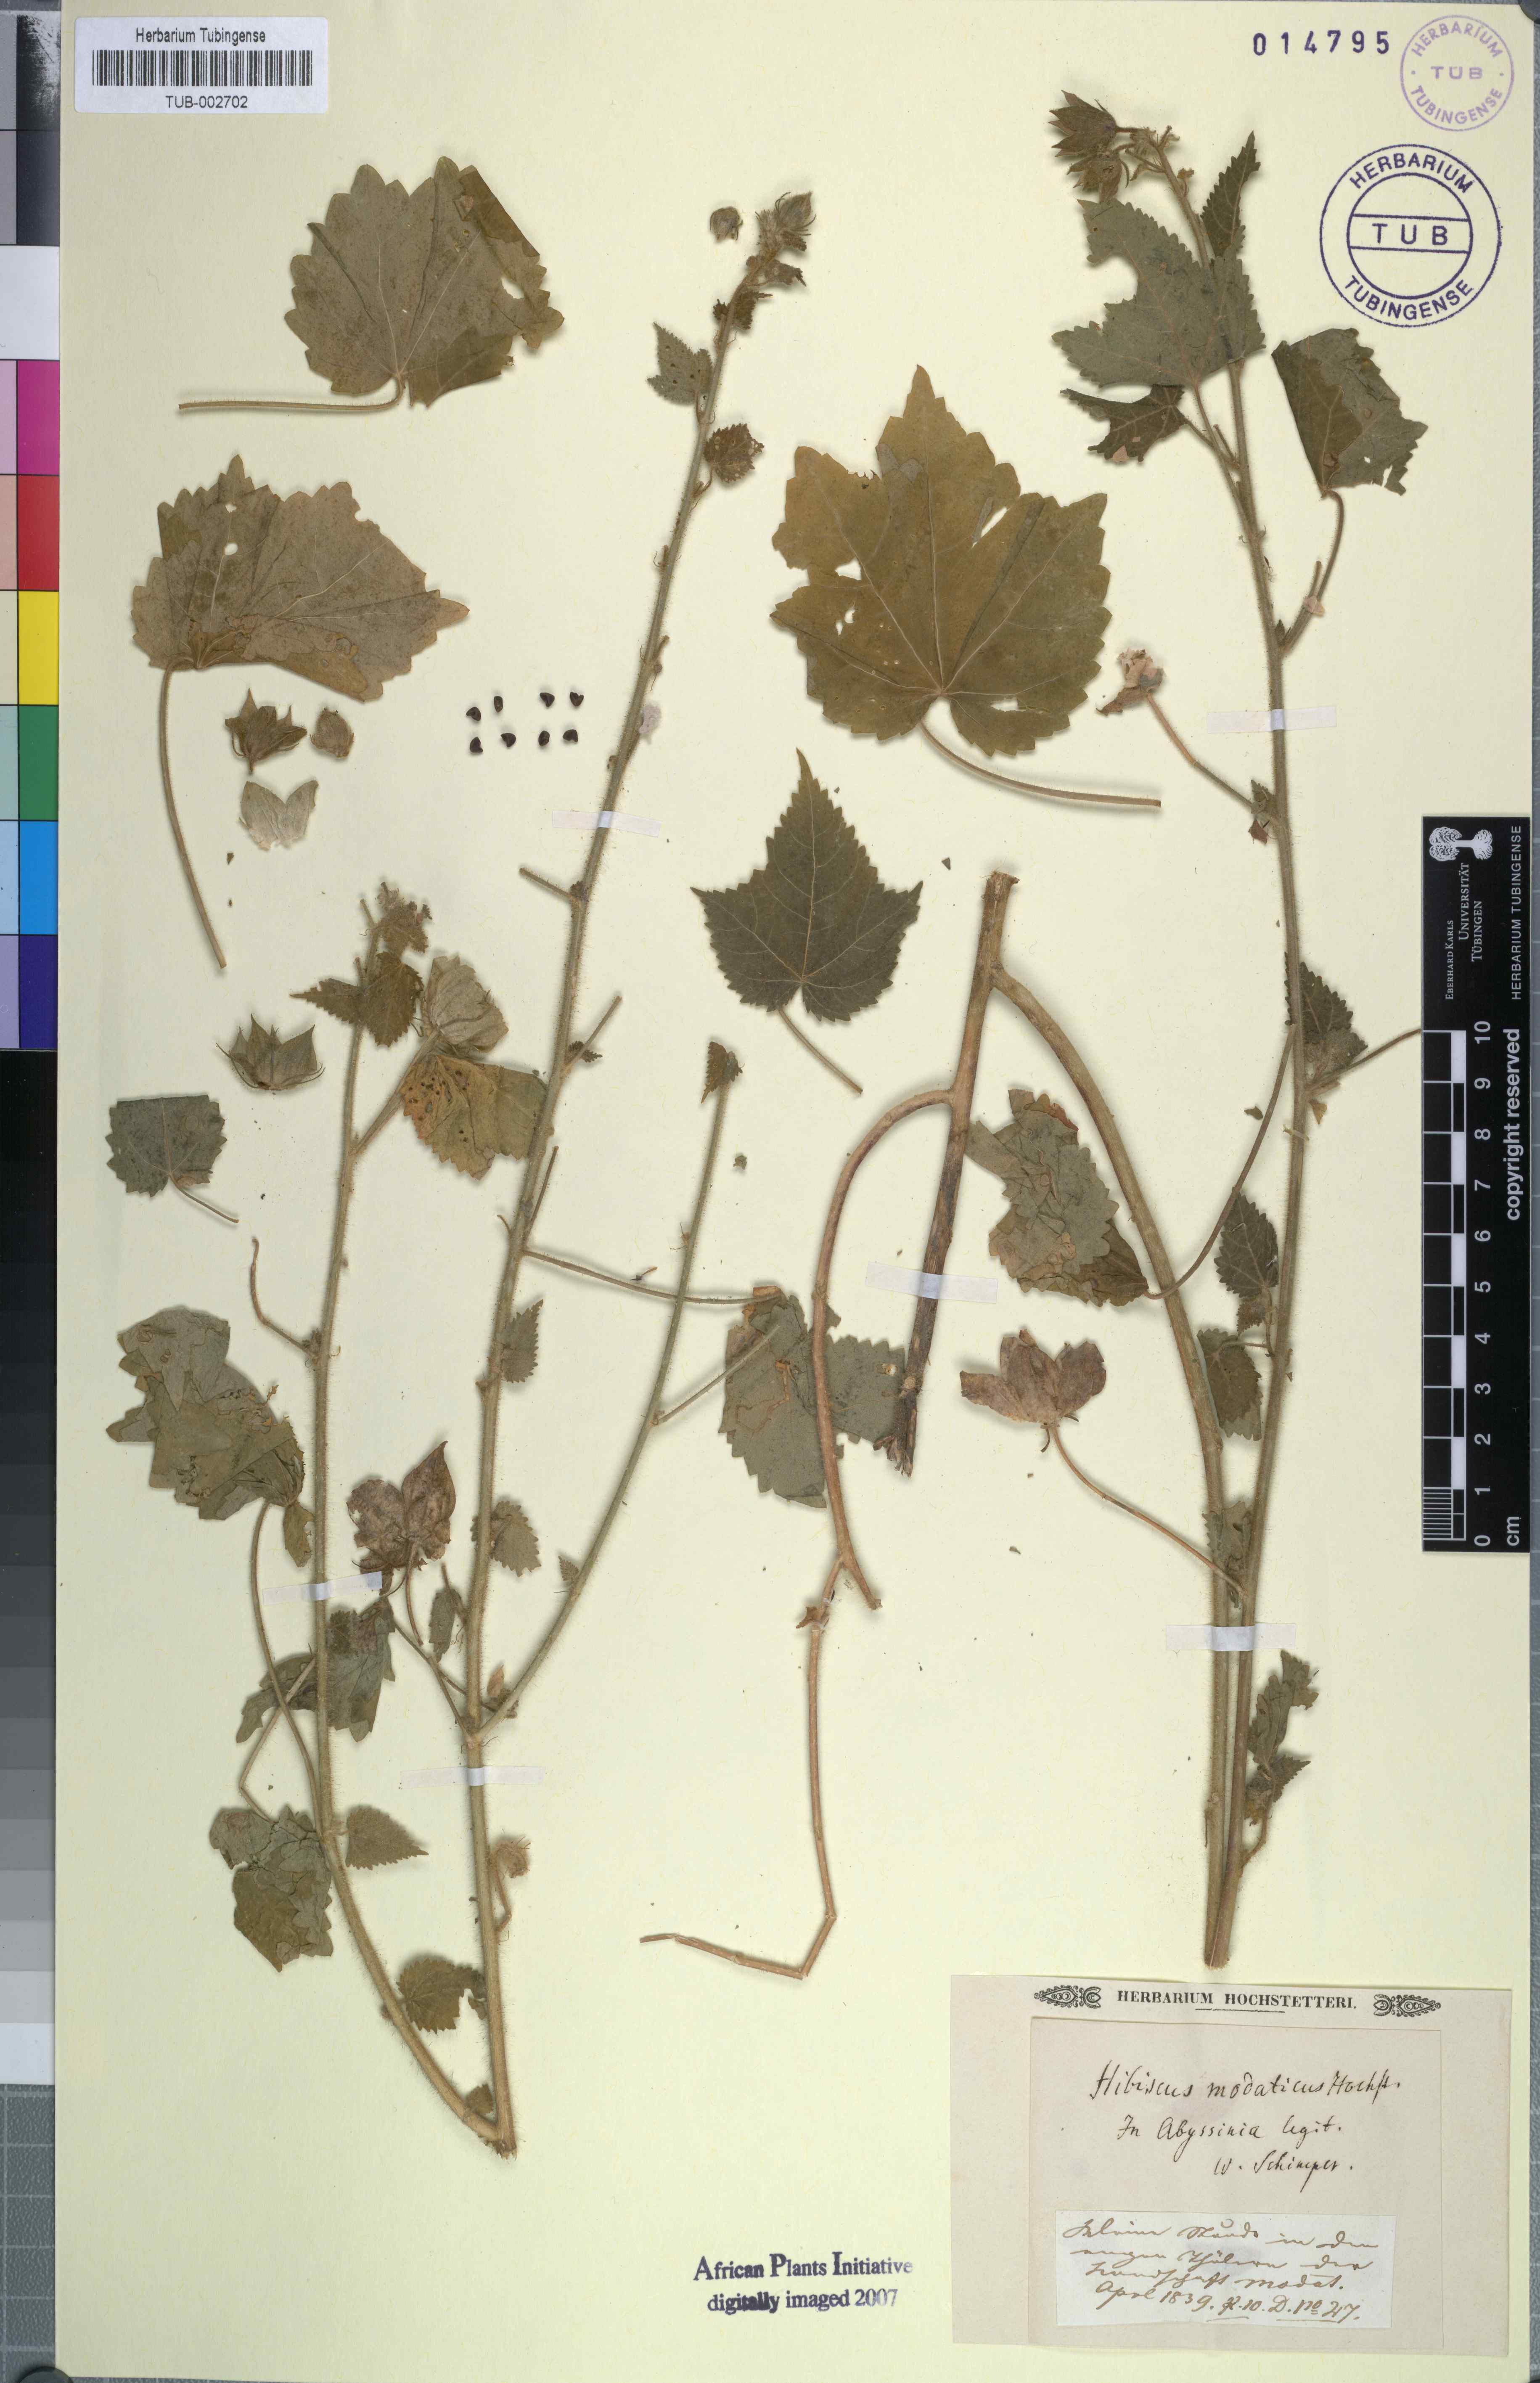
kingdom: Plantae
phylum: Tracheophyta
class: Magnoliopsida
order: Malvales
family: Malvaceae
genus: Hibiscus
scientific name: Hibiscus vitifolius
